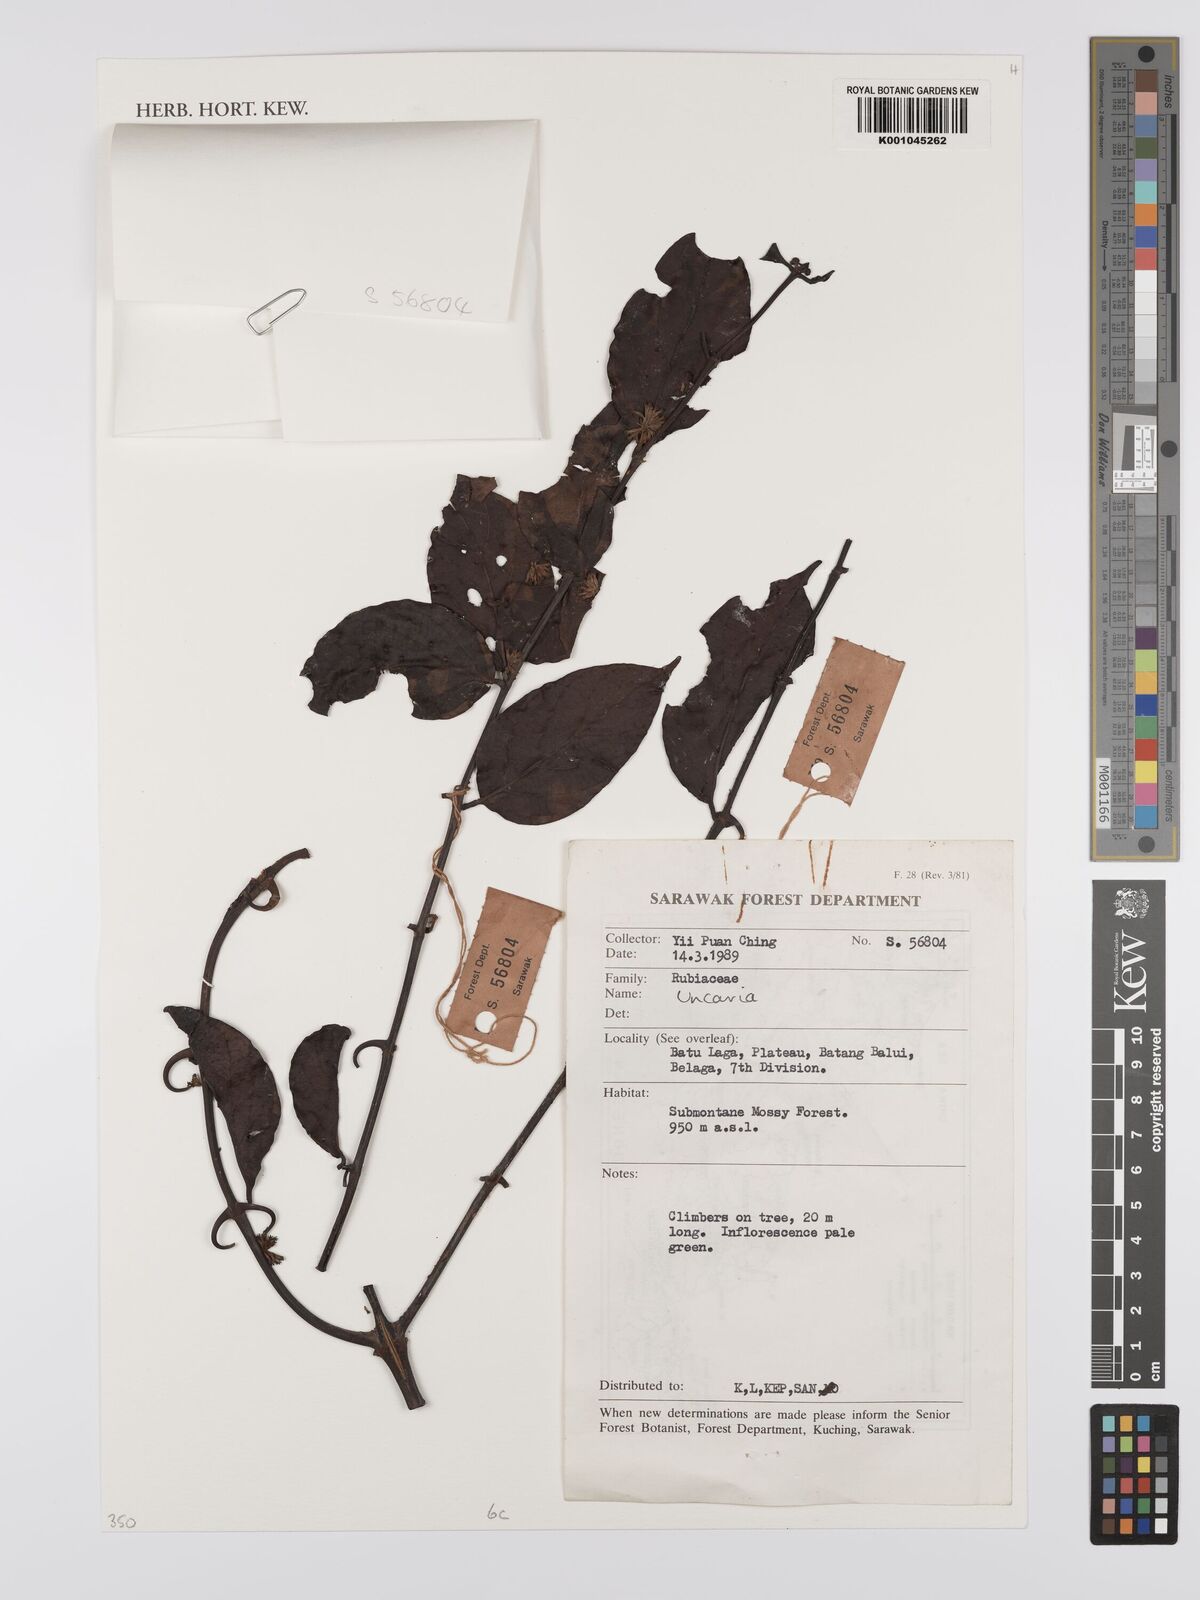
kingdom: Plantae
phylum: Tracheophyta
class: Magnoliopsida
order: Gentianales
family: Rubiaceae
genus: Uncaria
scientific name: Uncaria
